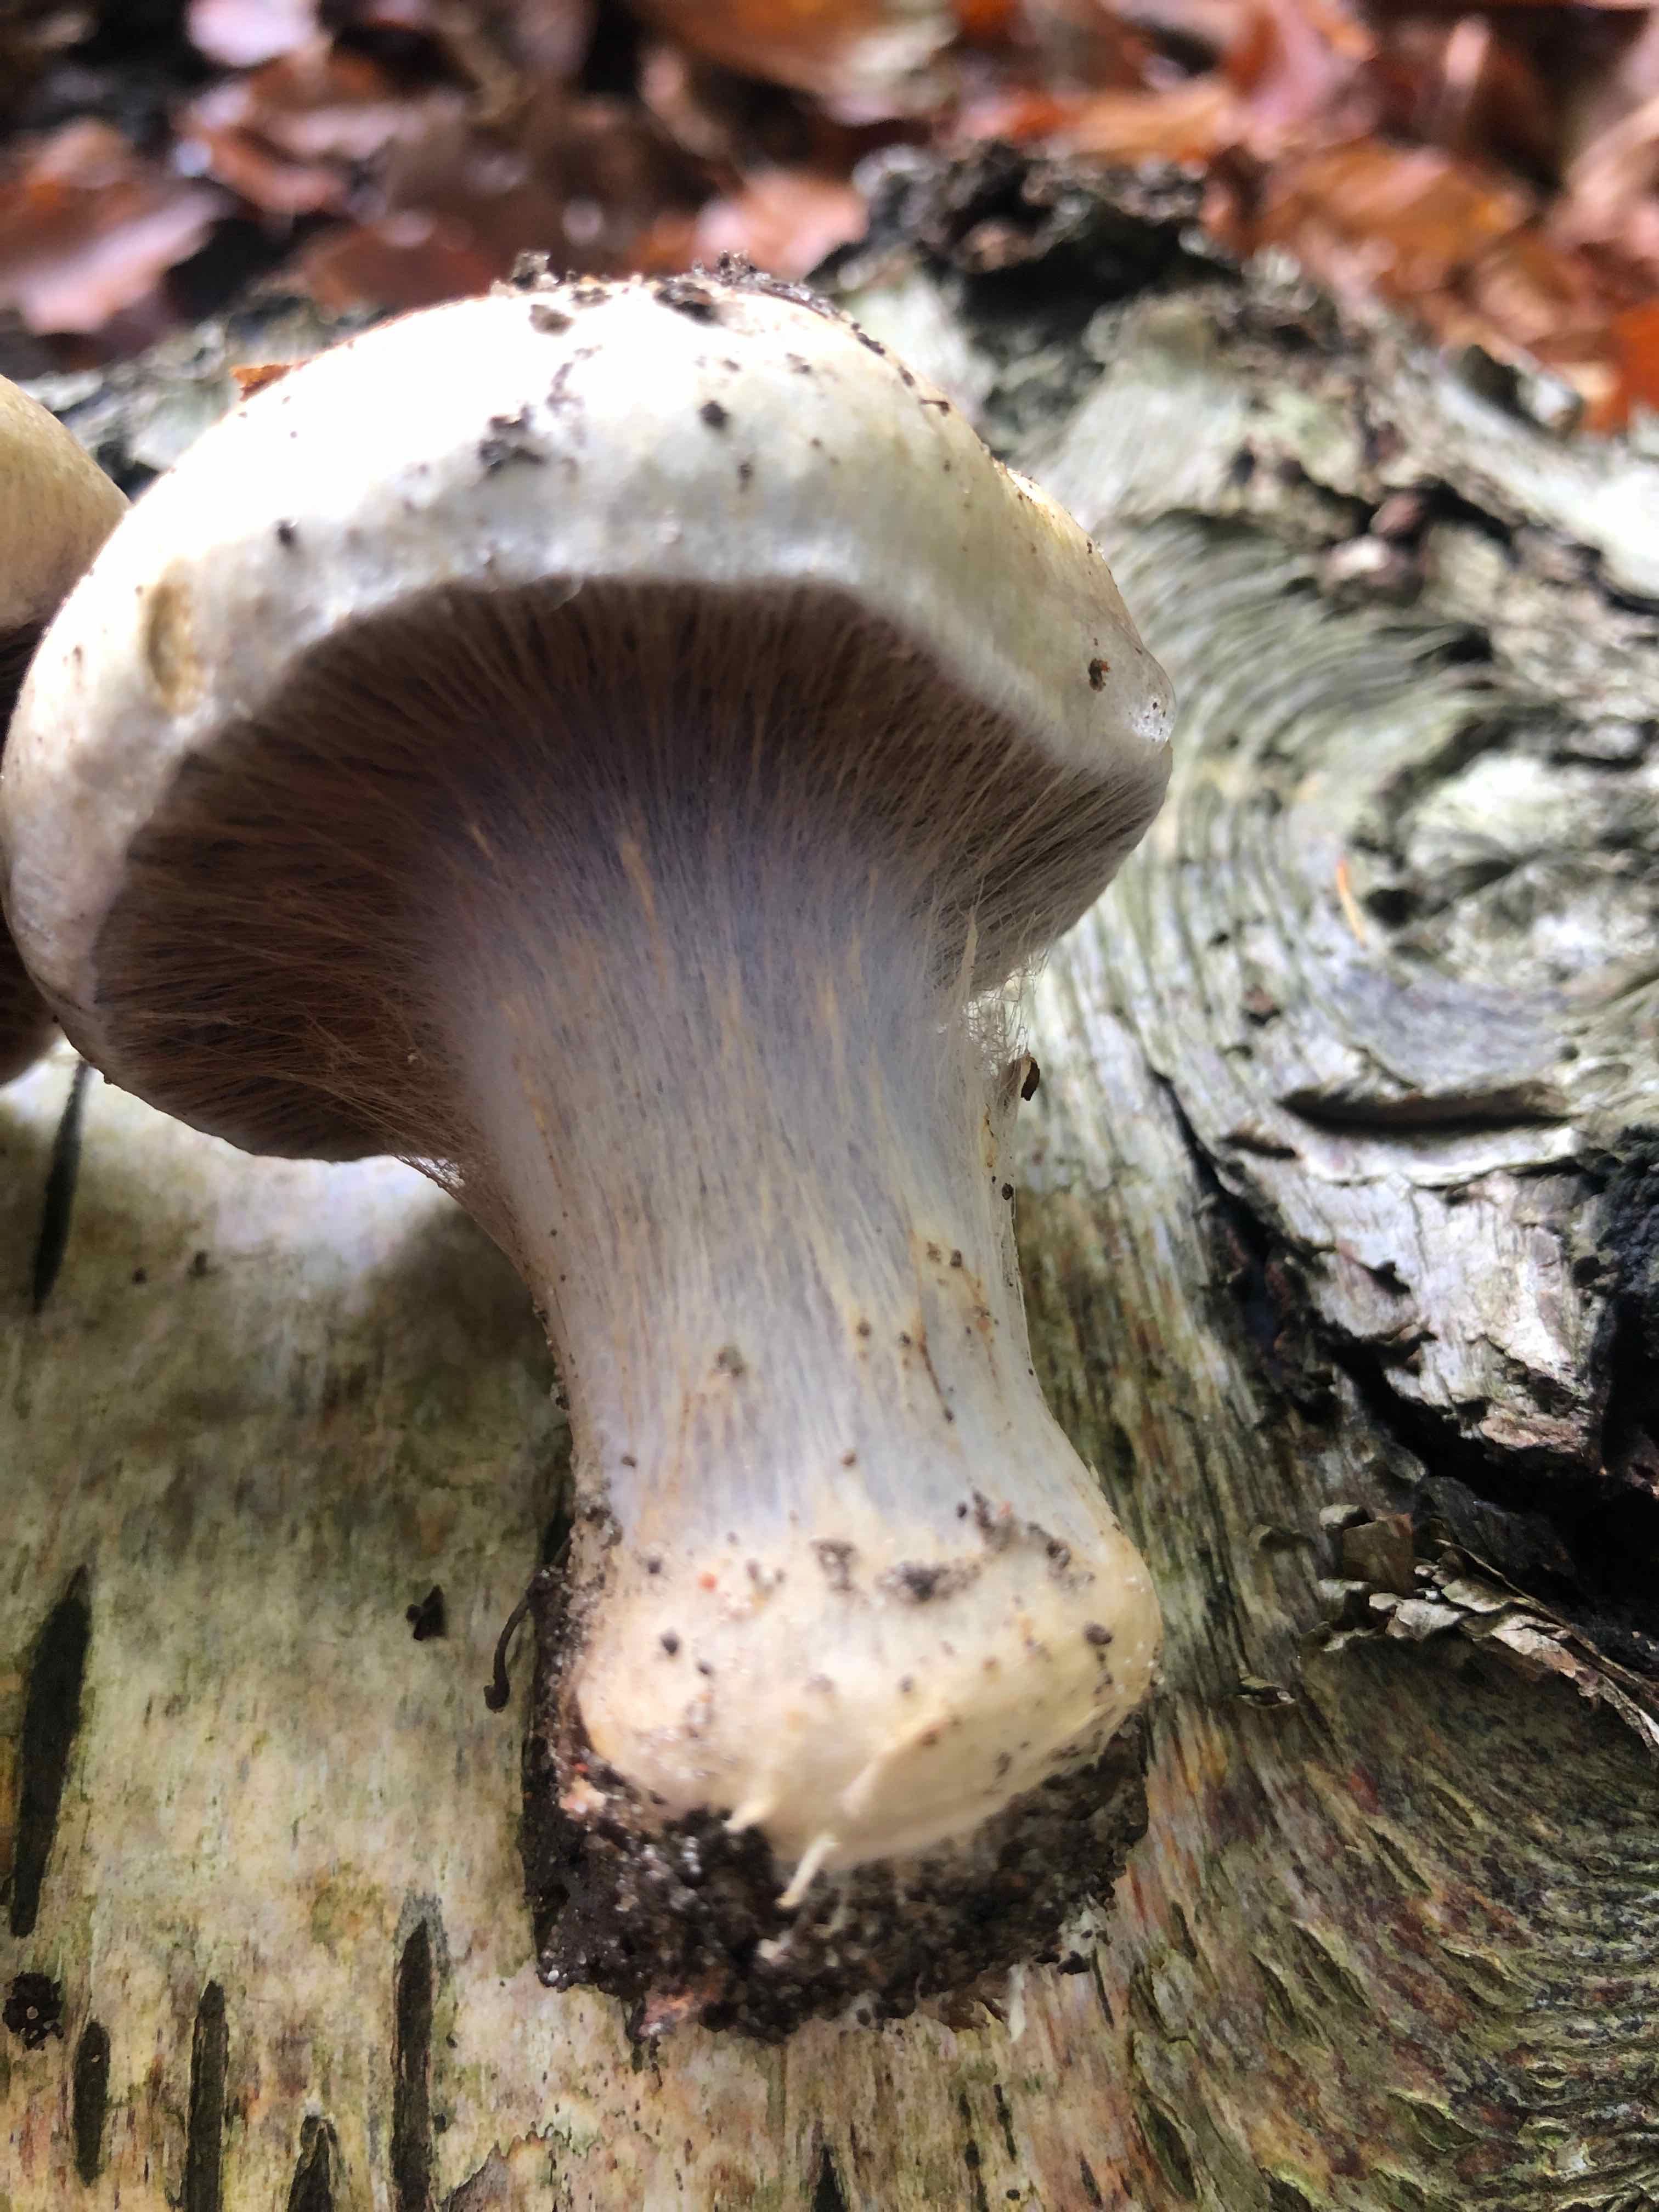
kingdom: Fungi
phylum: Basidiomycota
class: Agaricomycetes
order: Agaricales
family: Cortinariaceae
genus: Cortinarius
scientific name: Cortinarius anserinus
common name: bøge-slørhat
